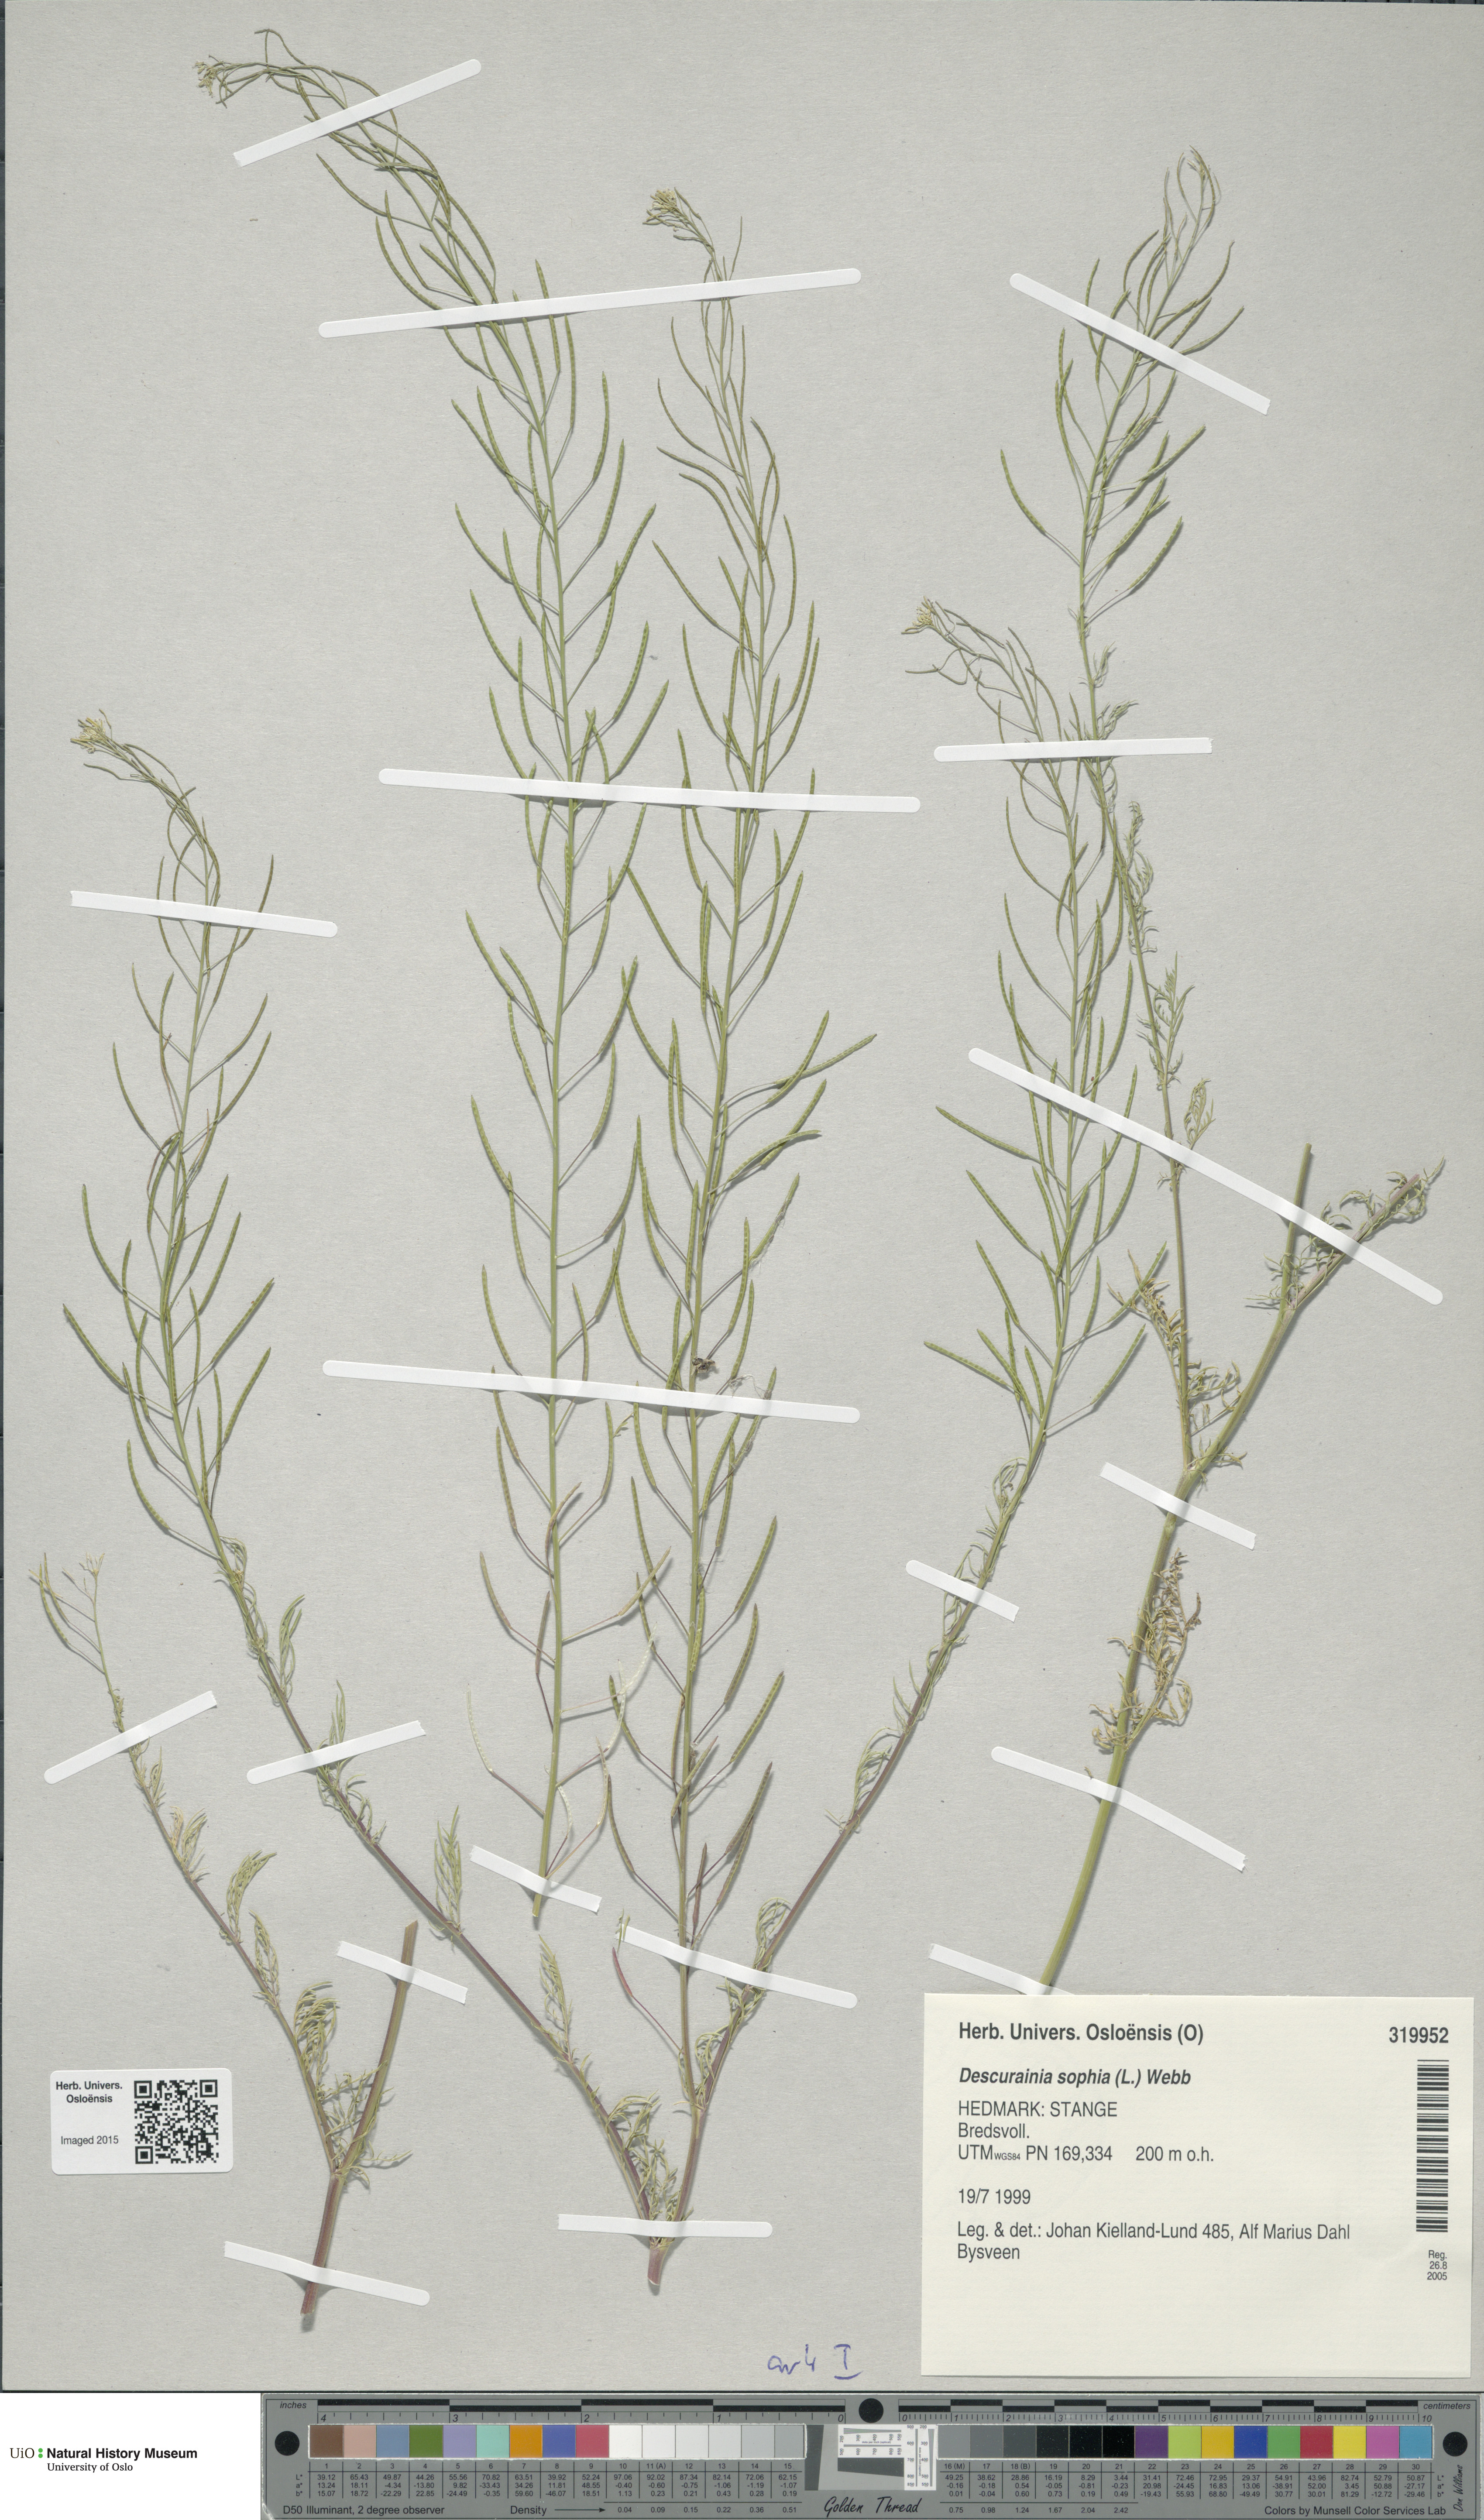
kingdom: Plantae
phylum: Tracheophyta
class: Magnoliopsida
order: Brassicales
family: Brassicaceae
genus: Descurainia
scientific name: Descurainia sophia
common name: Flixweed
